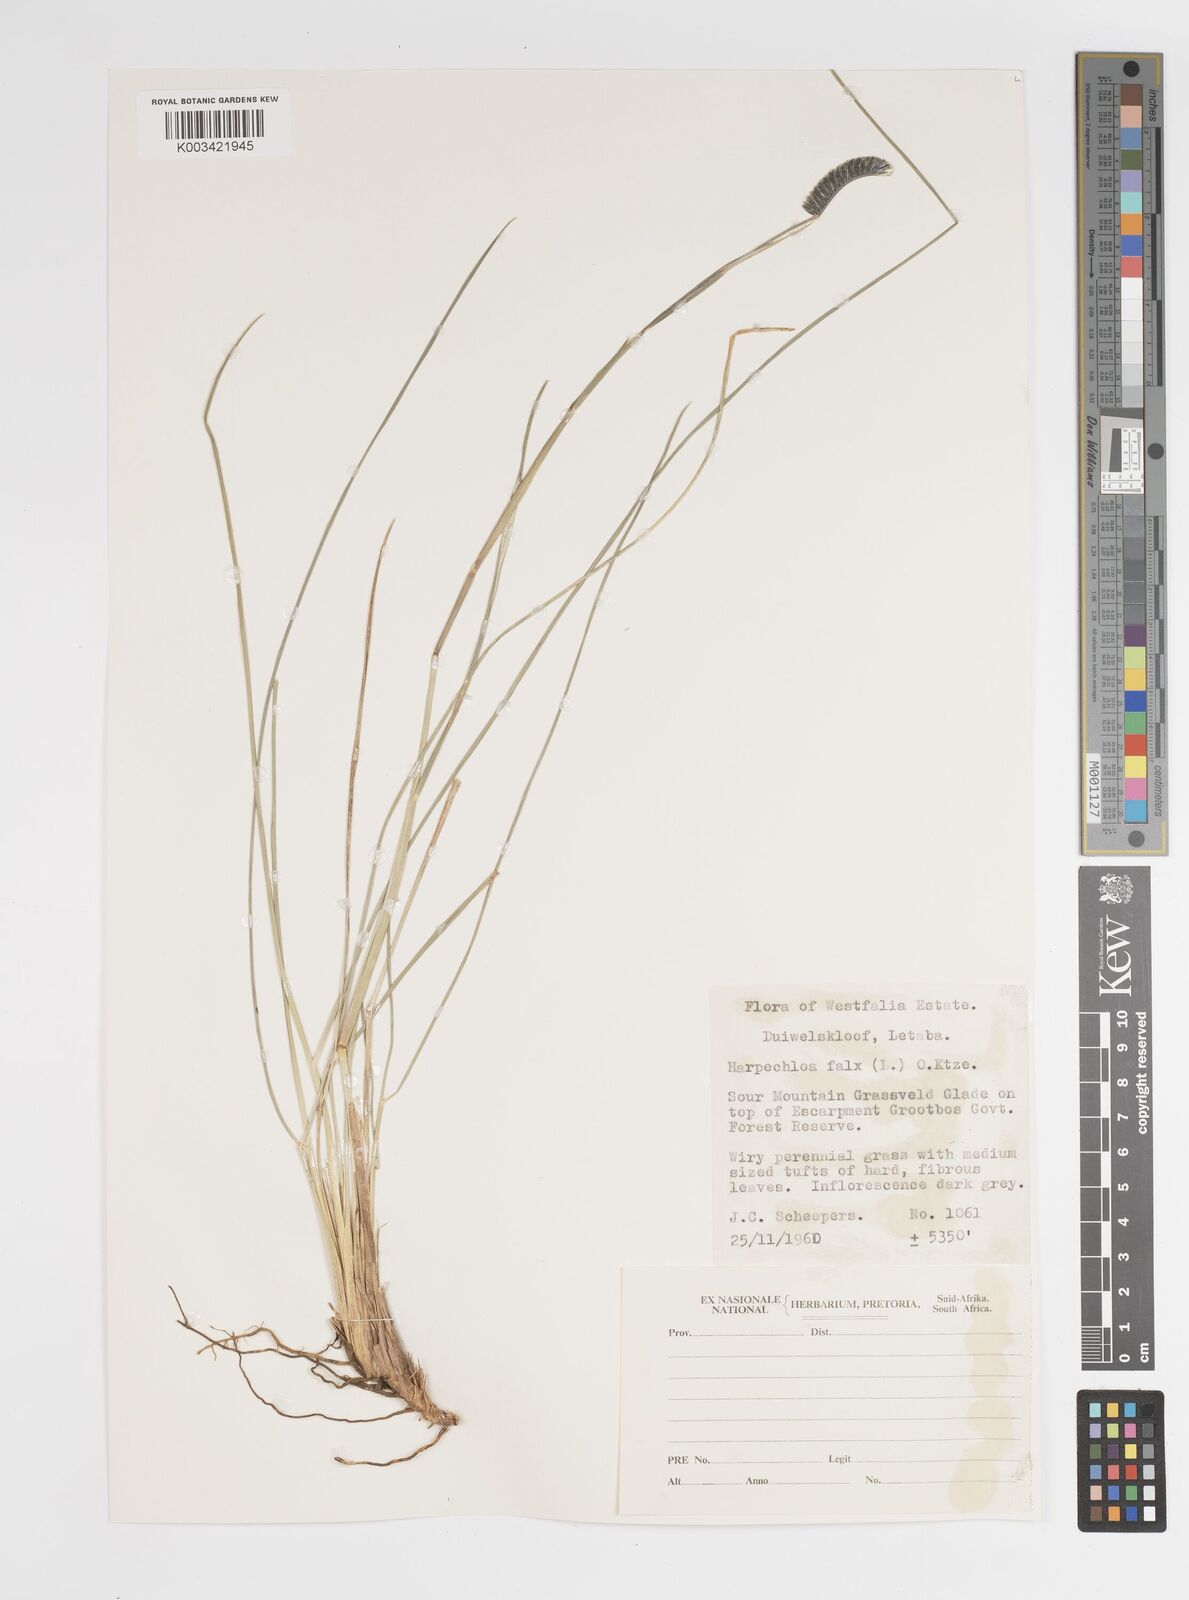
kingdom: Plantae
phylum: Tracheophyta
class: Liliopsida
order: Poales
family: Poaceae
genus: Harpochloa
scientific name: Harpochloa falx
